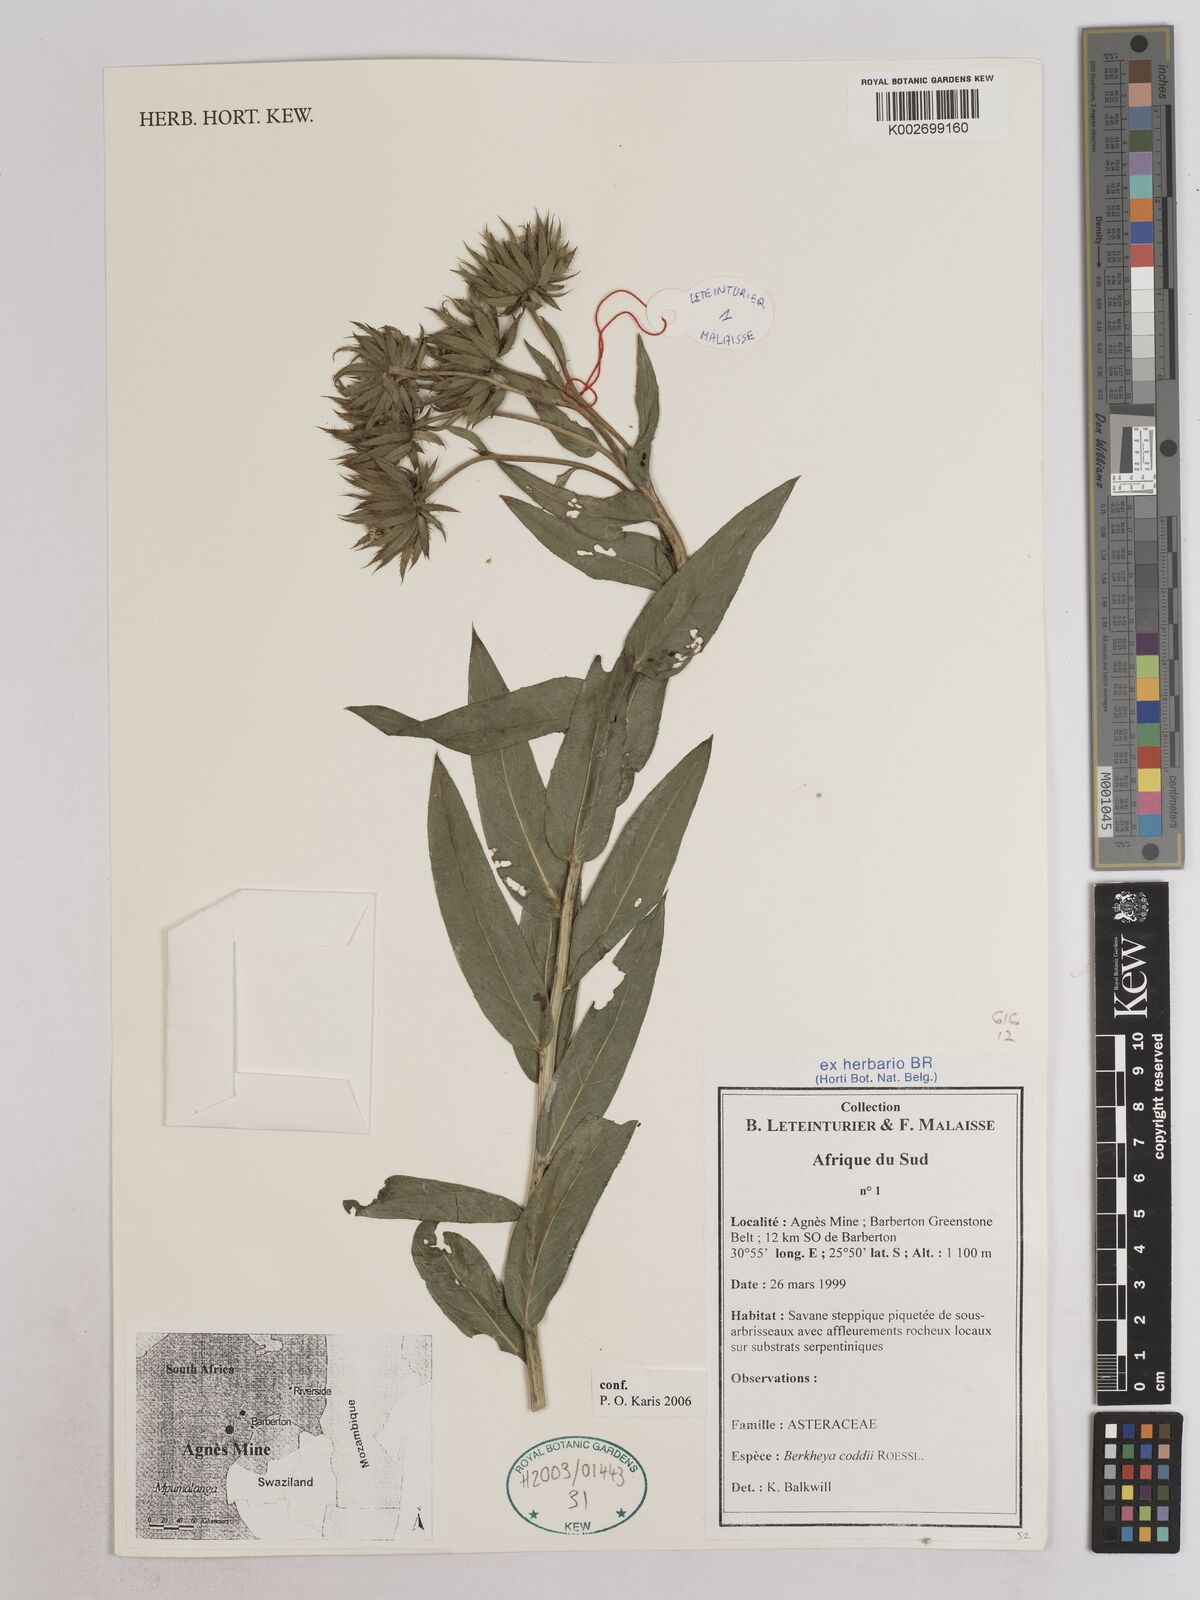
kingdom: Plantae
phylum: Tracheophyta
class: Magnoliopsida
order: Asterales
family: Asteraceae
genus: Berkheya
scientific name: Berkheya coddii
